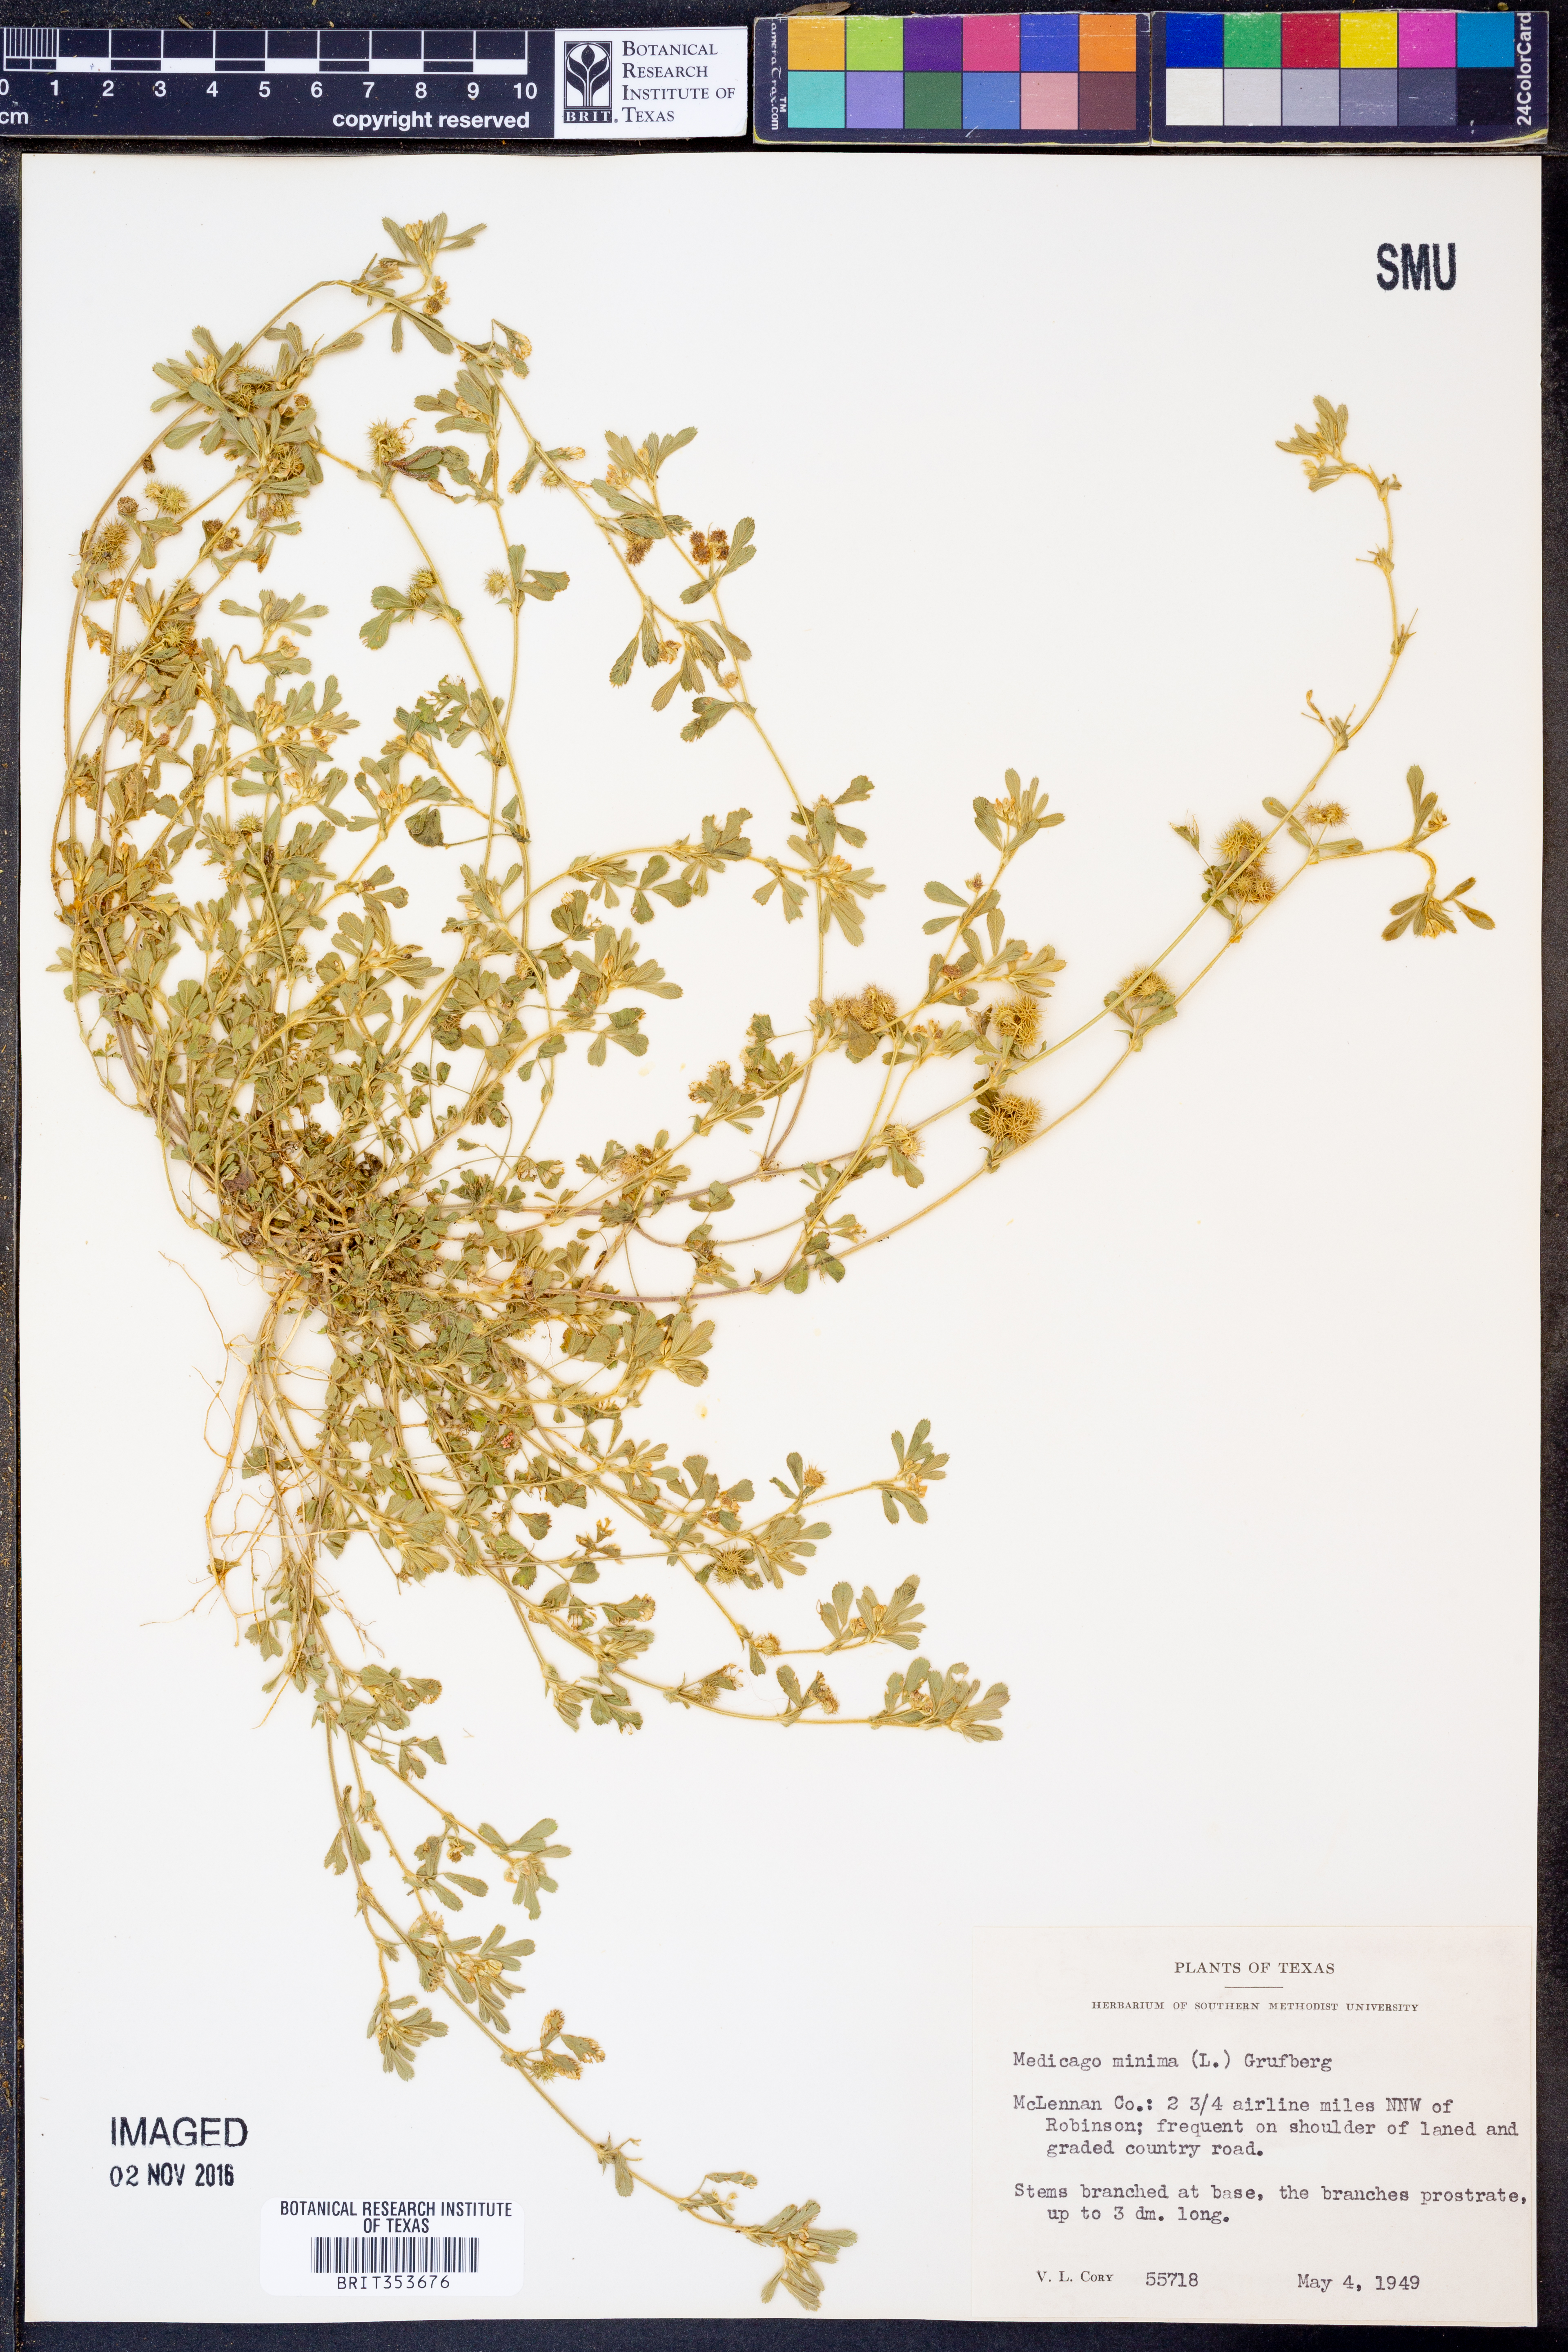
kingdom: Plantae
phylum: Tracheophyta
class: Magnoliopsida
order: Fabales
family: Fabaceae
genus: Medicago
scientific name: Medicago minima
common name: Little bur-clover
